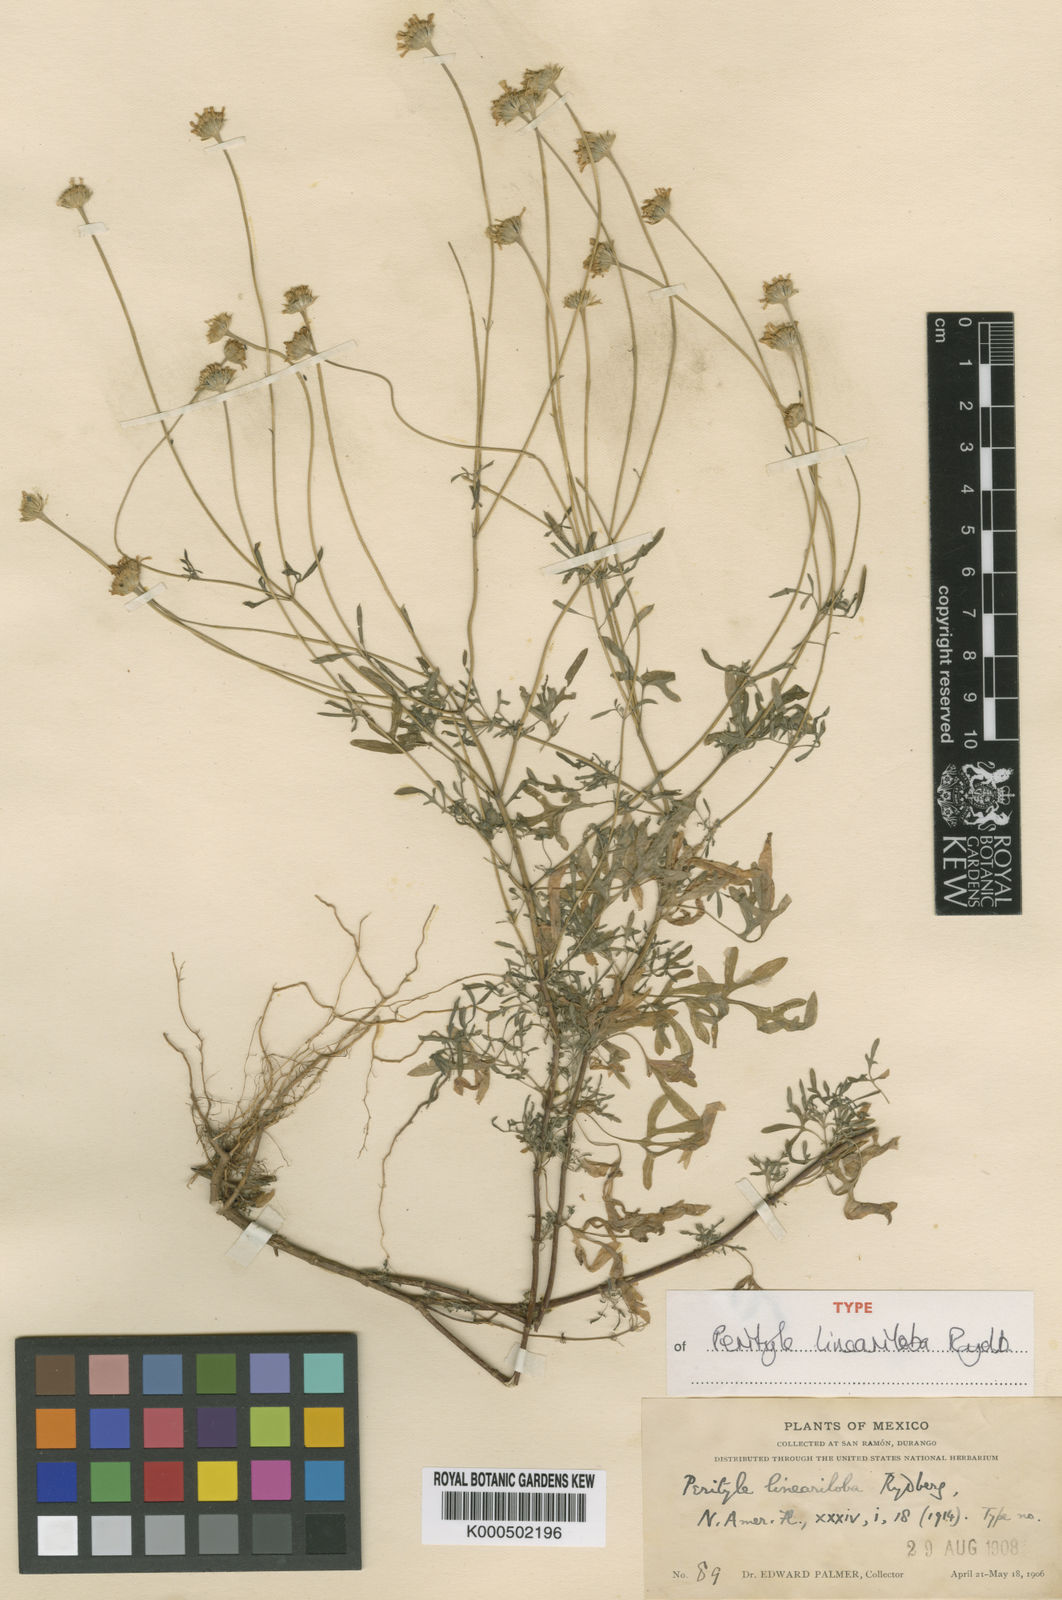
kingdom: Plantae
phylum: Tracheophyta
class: Magnoliopsida
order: Asterales
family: Asteraceae
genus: Galinsogeopsis
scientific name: Galinsogeopsis lineariloba
